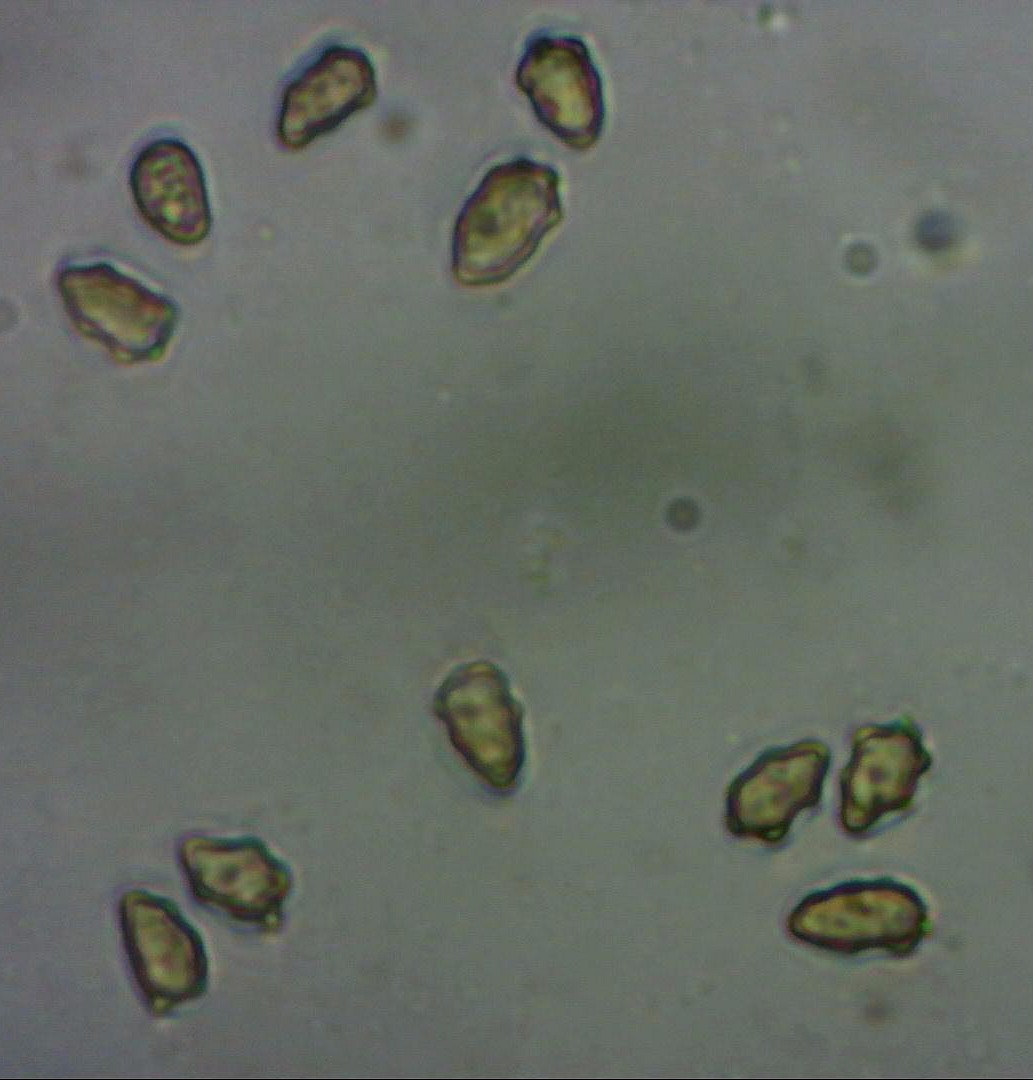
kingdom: Fungi
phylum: Basidiomycota
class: Agaricomycetes
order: Agaricales
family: Inocybaceae
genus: Inocybe
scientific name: Inocybe curvipes
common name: plæne-trævlhat
